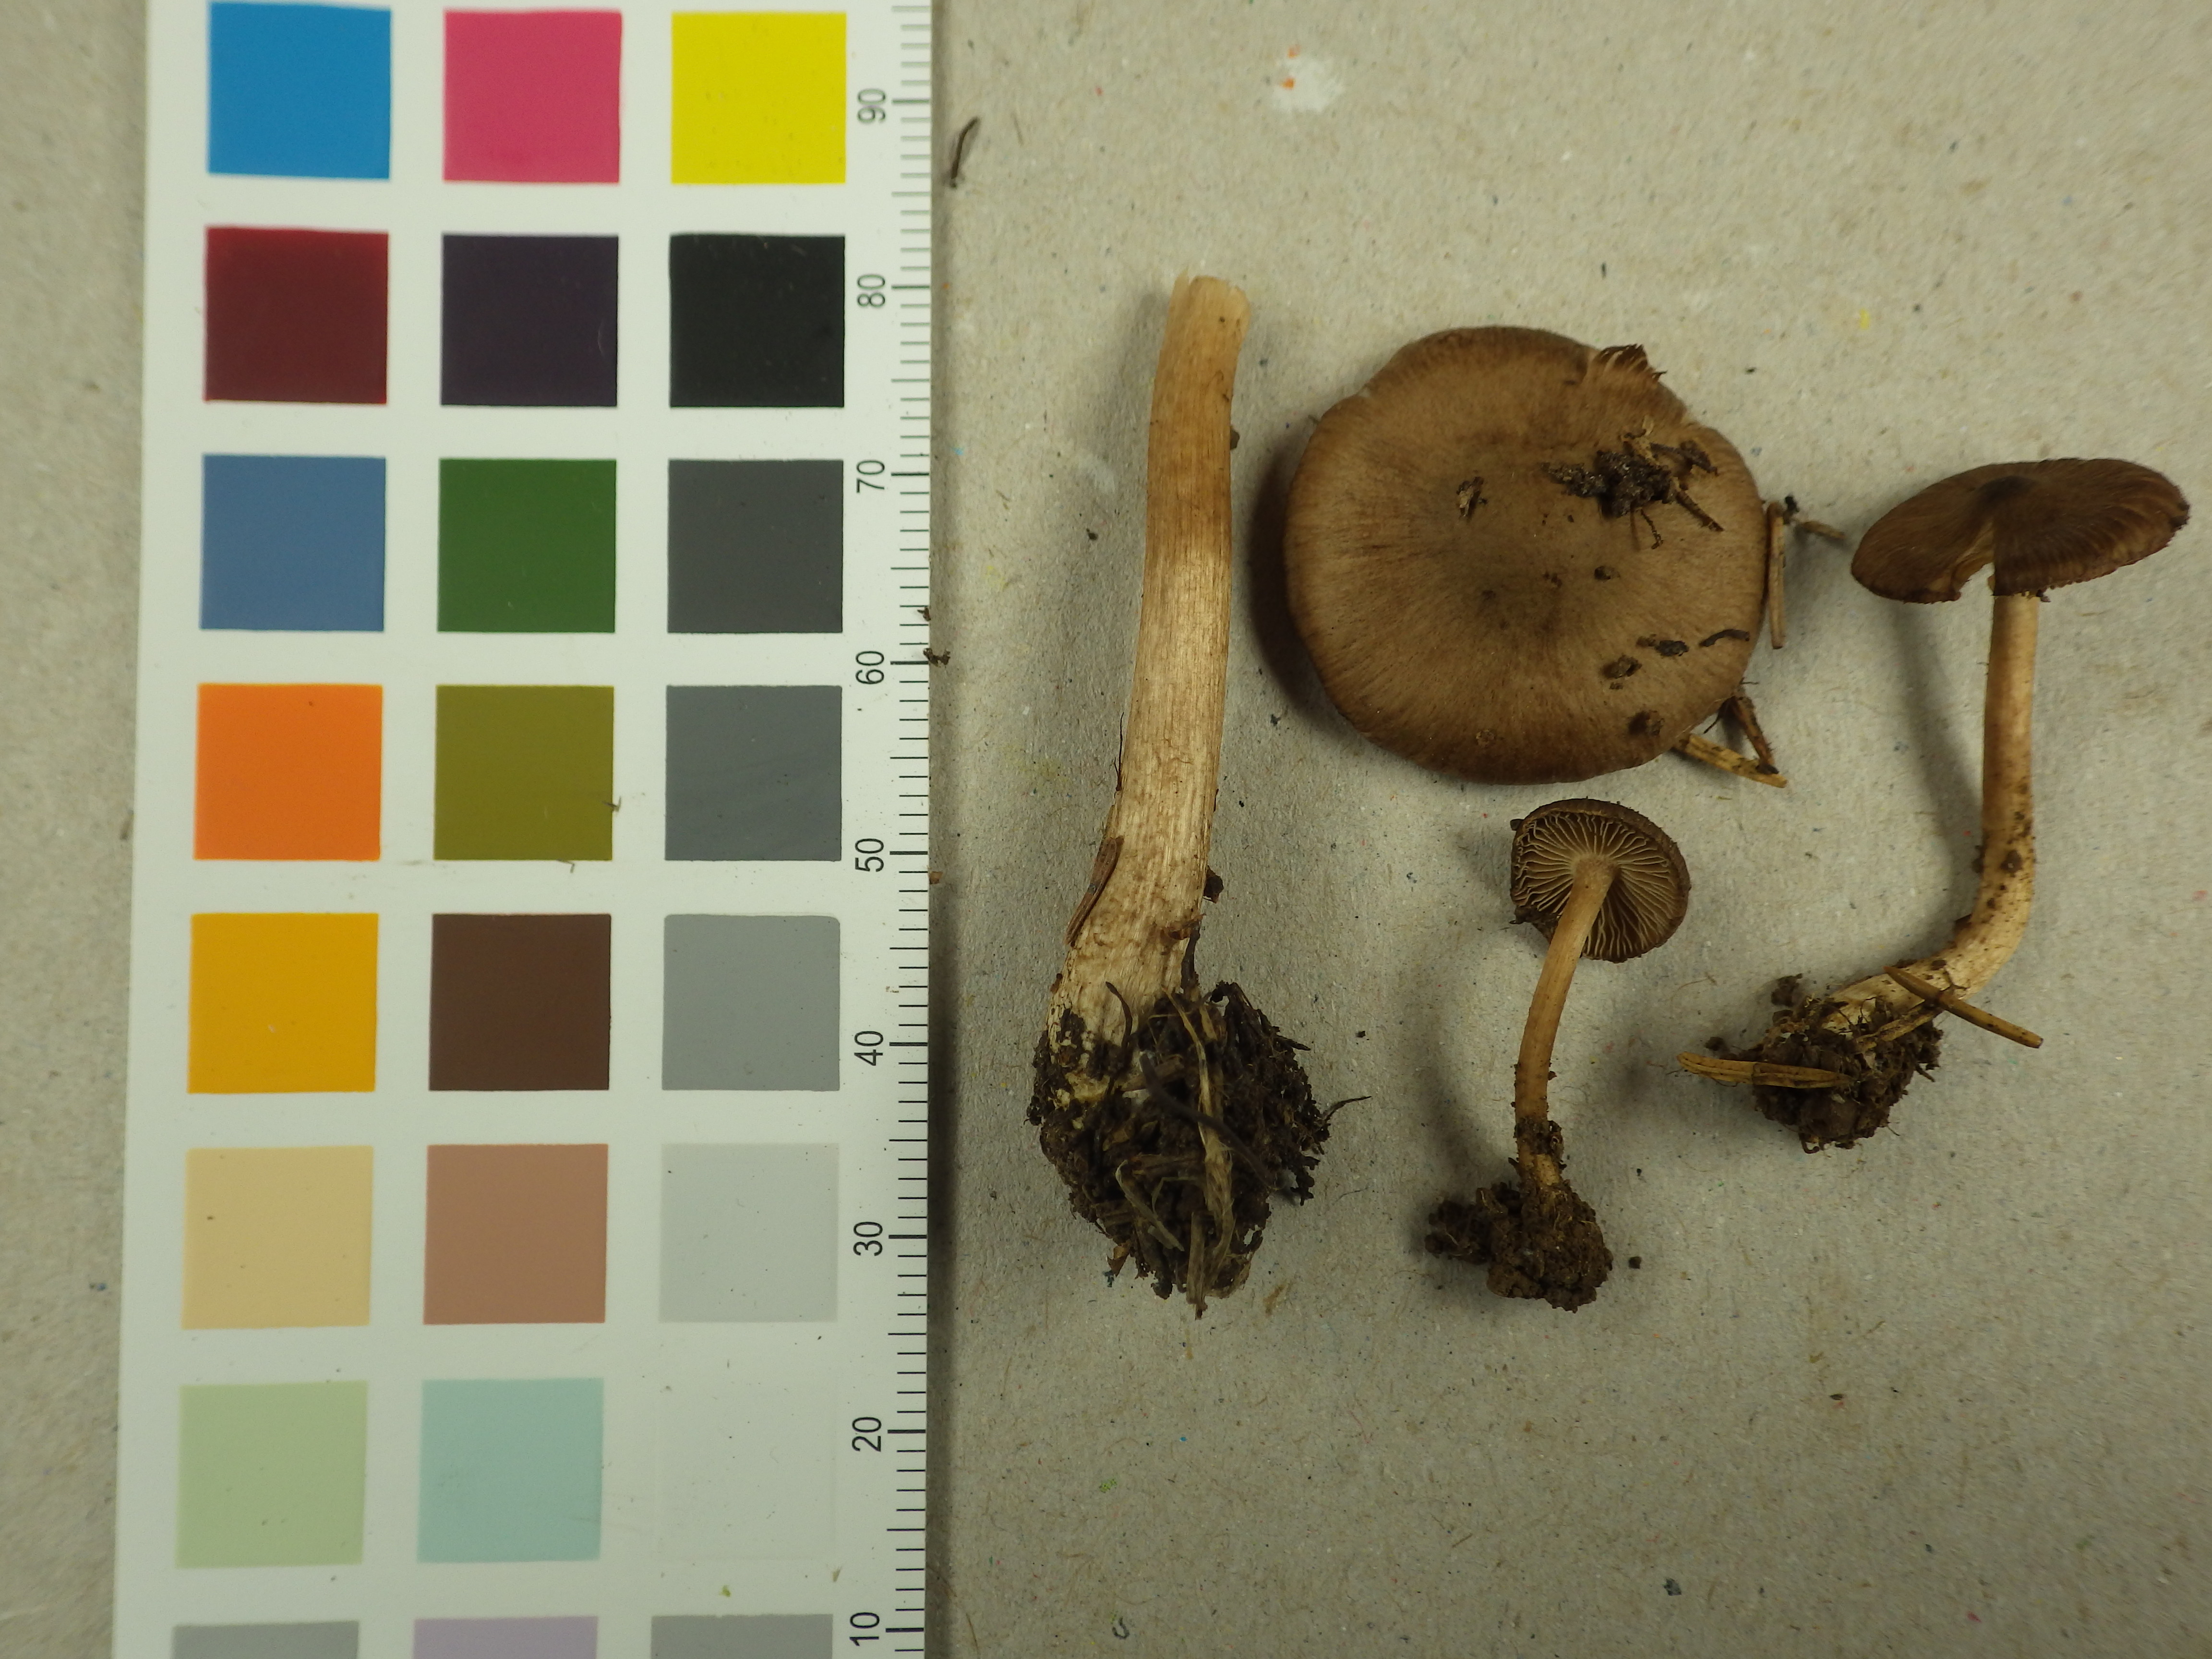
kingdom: Fungi
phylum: Basidiomycota
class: Agaricomycetes
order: Agaricales
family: Inocybaceae
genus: Inocybe
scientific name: Inocybe nitidiuscula
